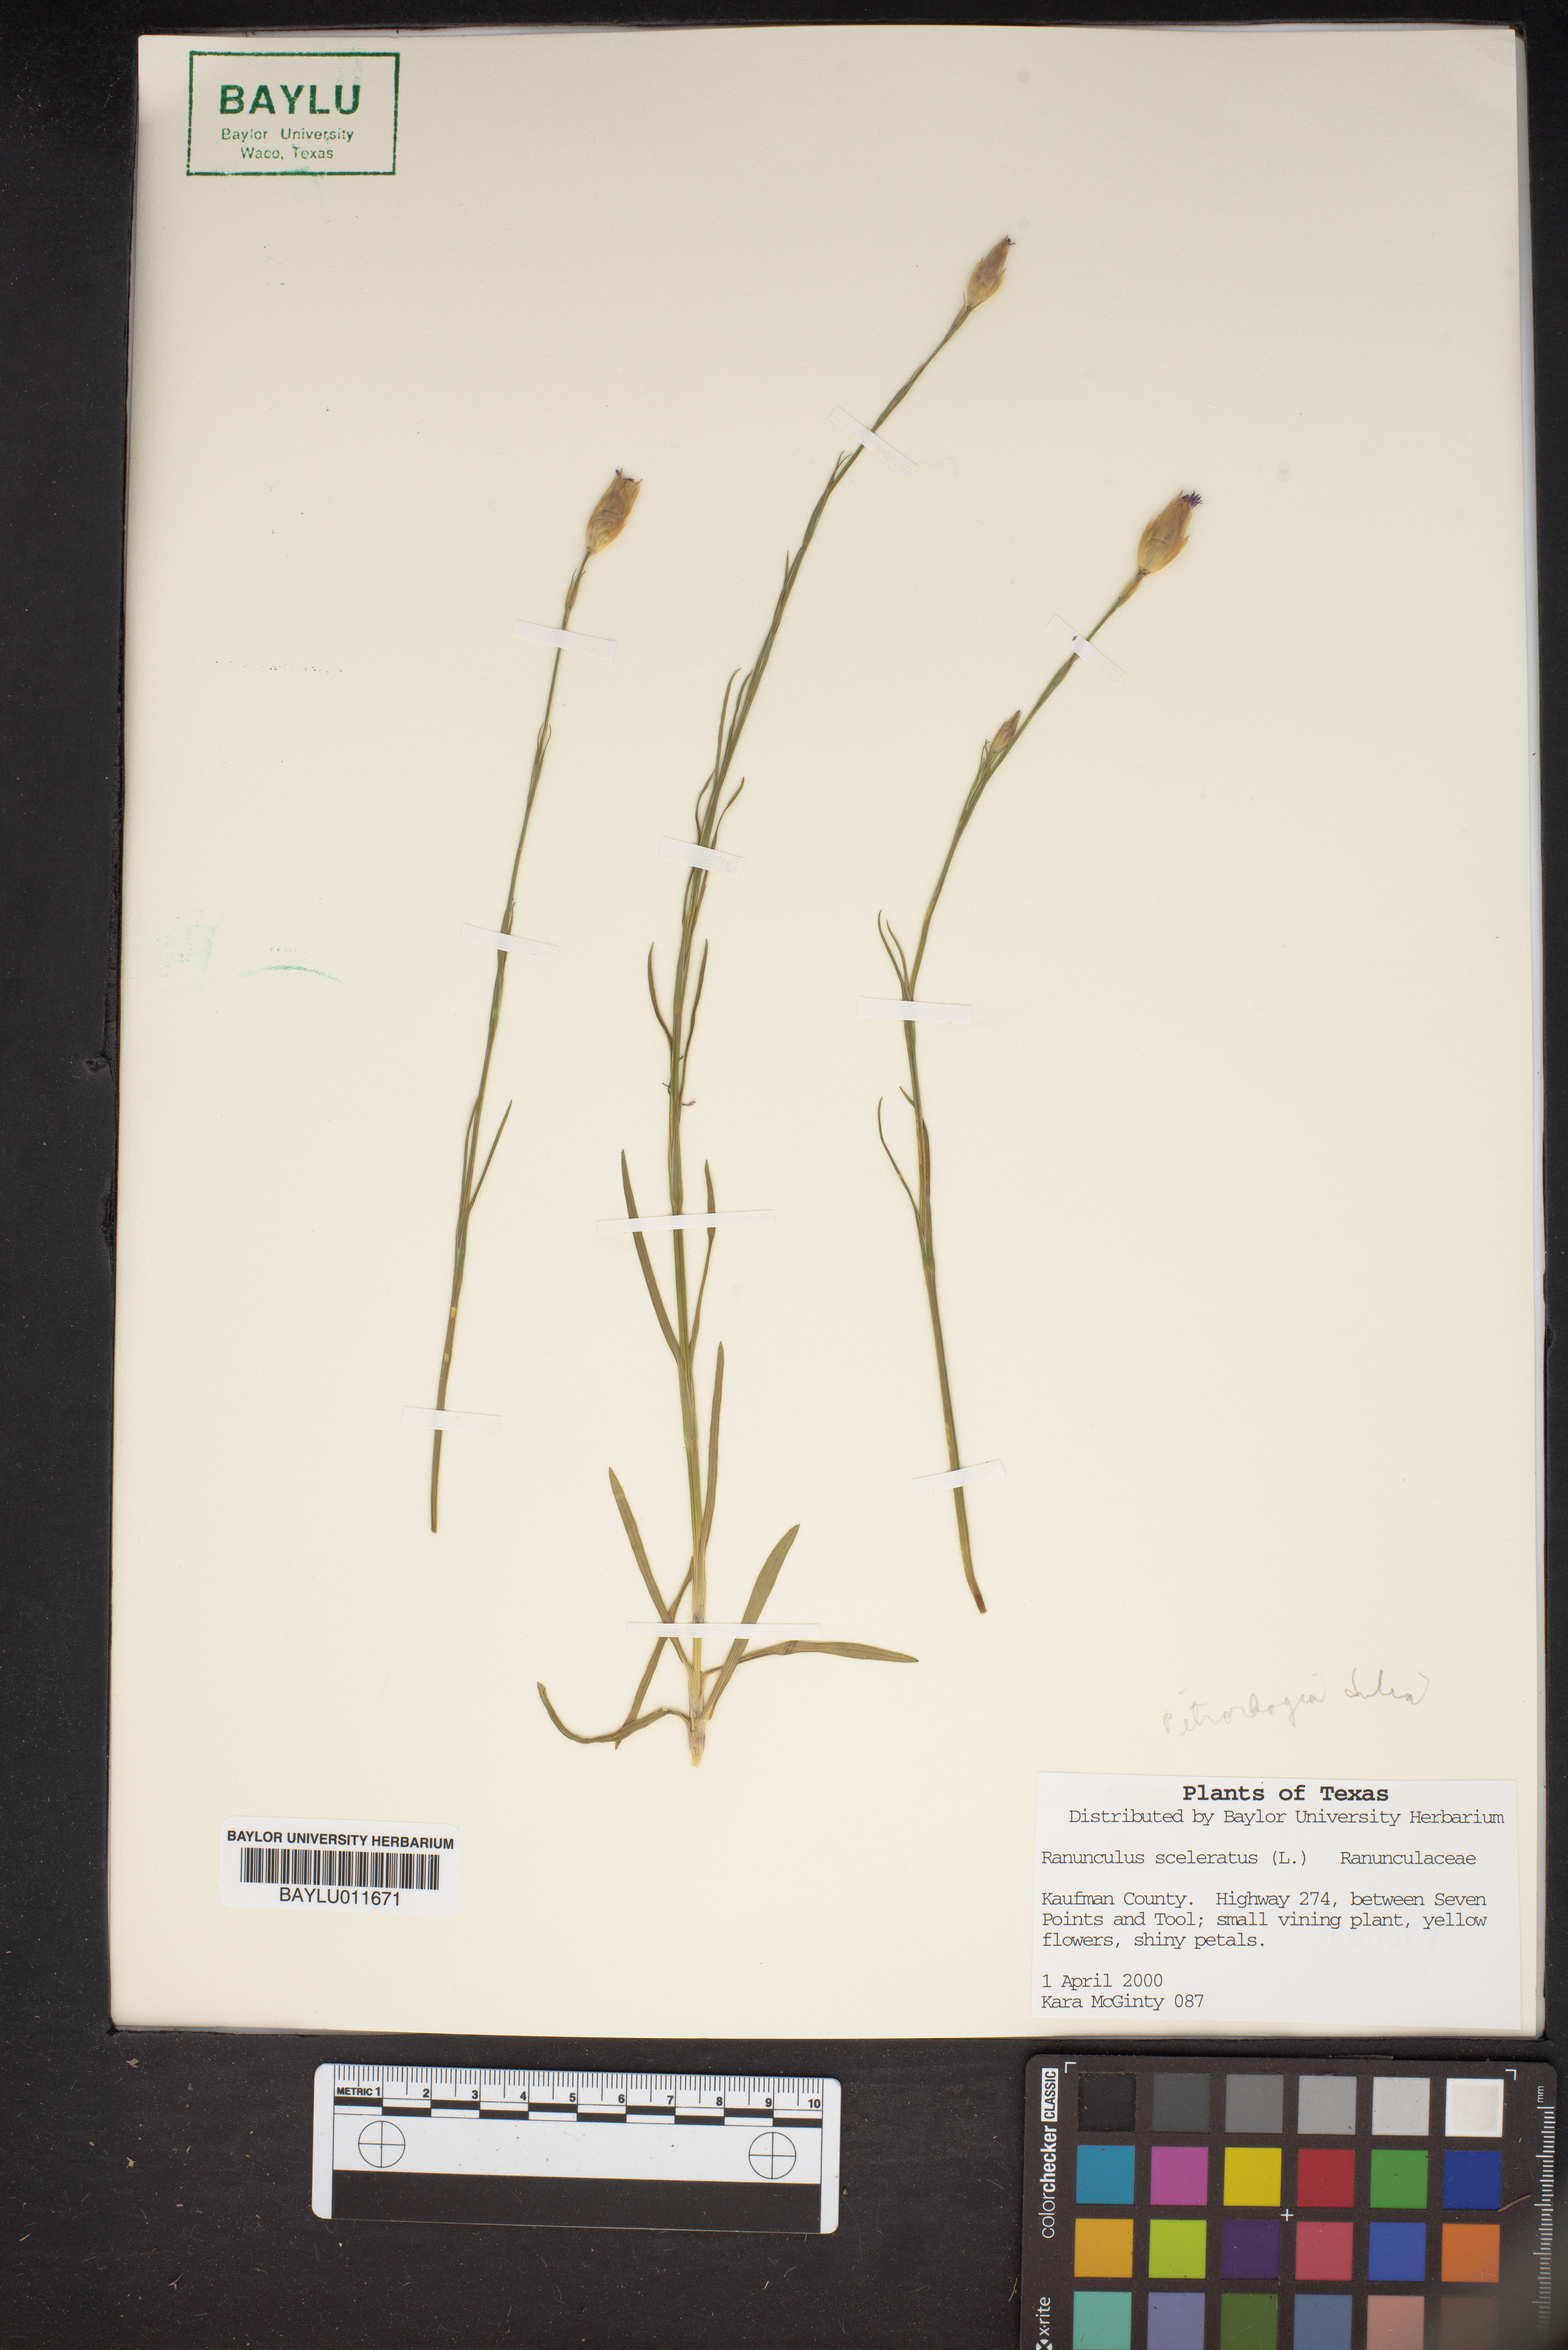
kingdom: Plantae
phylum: Tracheophyta
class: Magnoliopsida
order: Ranunculales
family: Ranunculaceae
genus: Ranunculus
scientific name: Ranunculus sceleratus
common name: Celery-leaved buttercup
